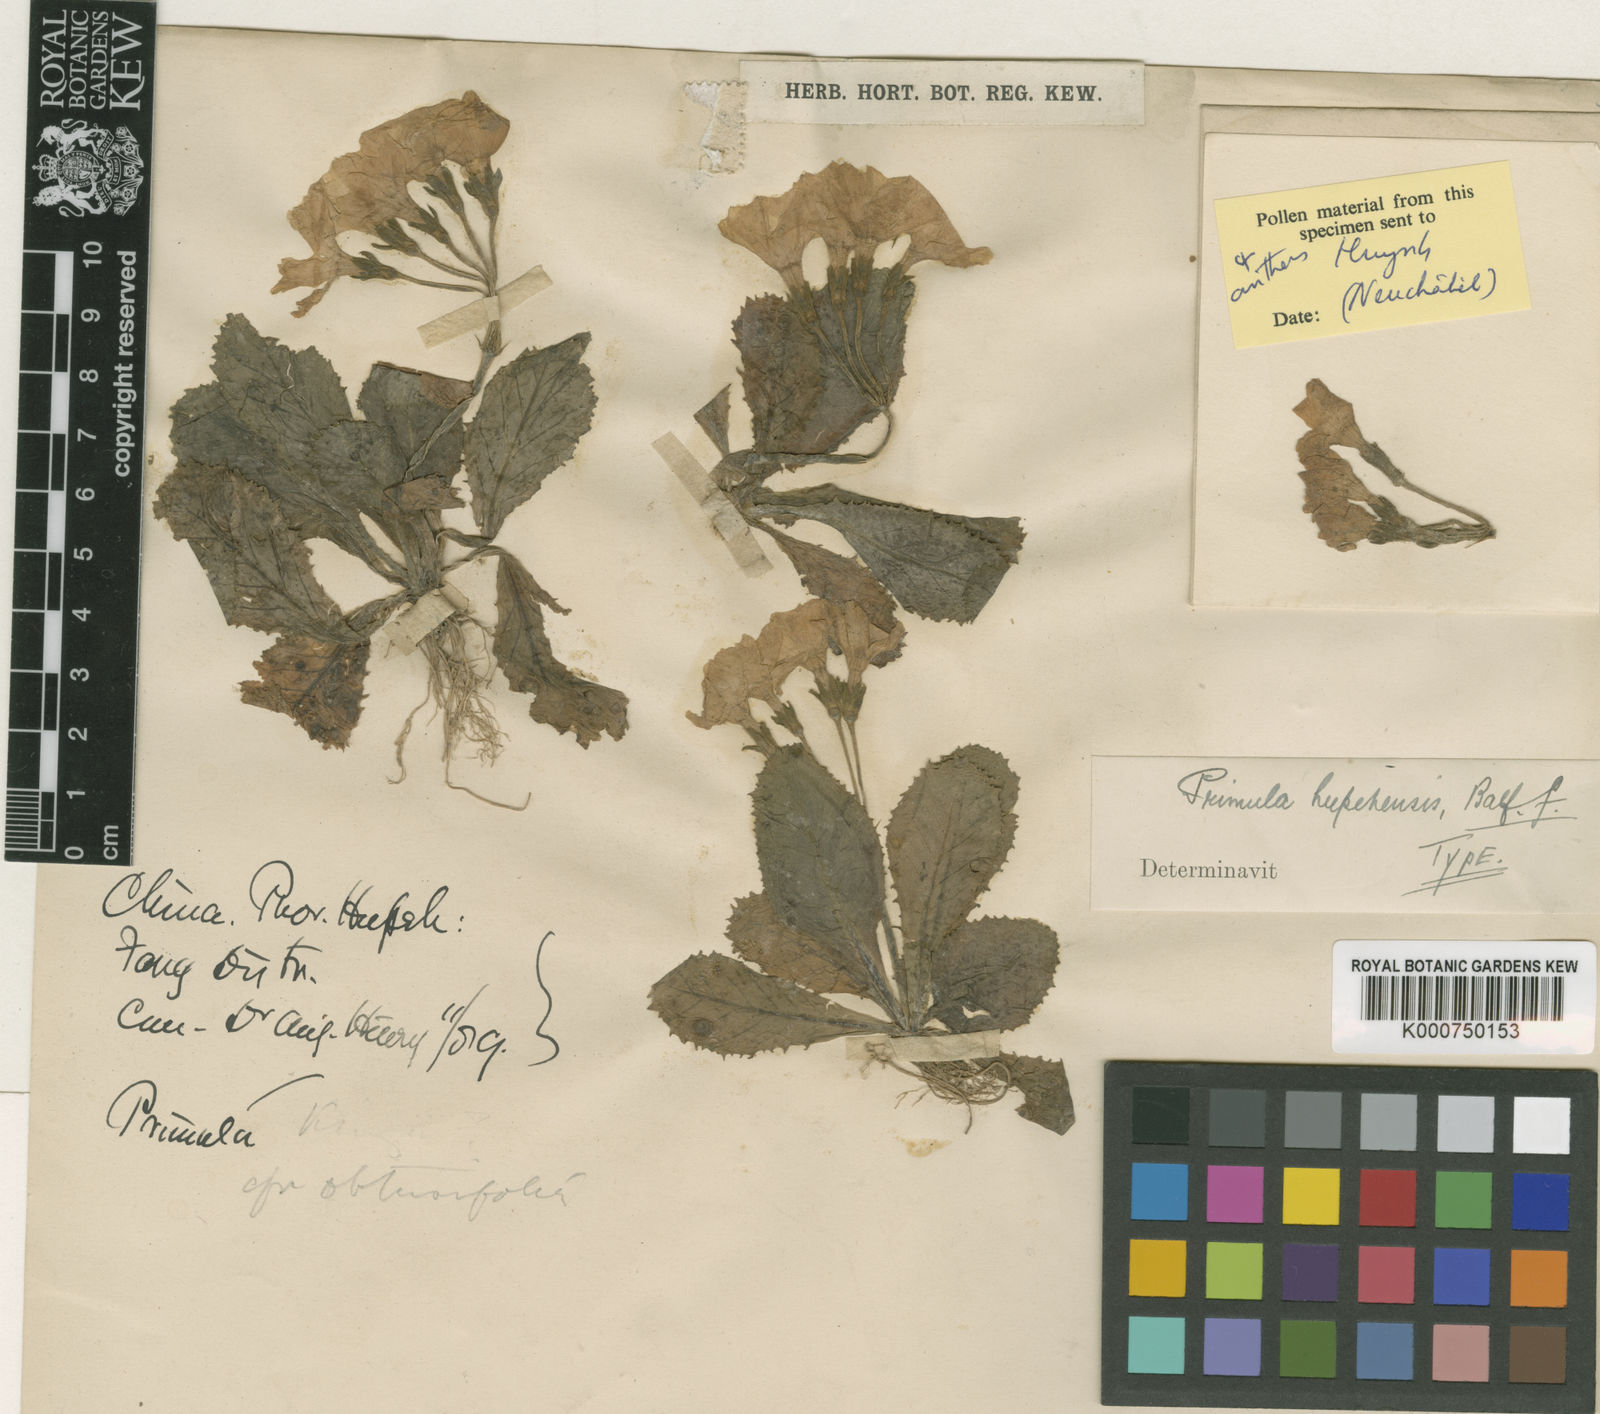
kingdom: Plantae
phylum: Tracheophyta
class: Magnoliopsida
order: Ericales
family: Primulaceae
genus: Primula
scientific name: Primula odontocalyx
